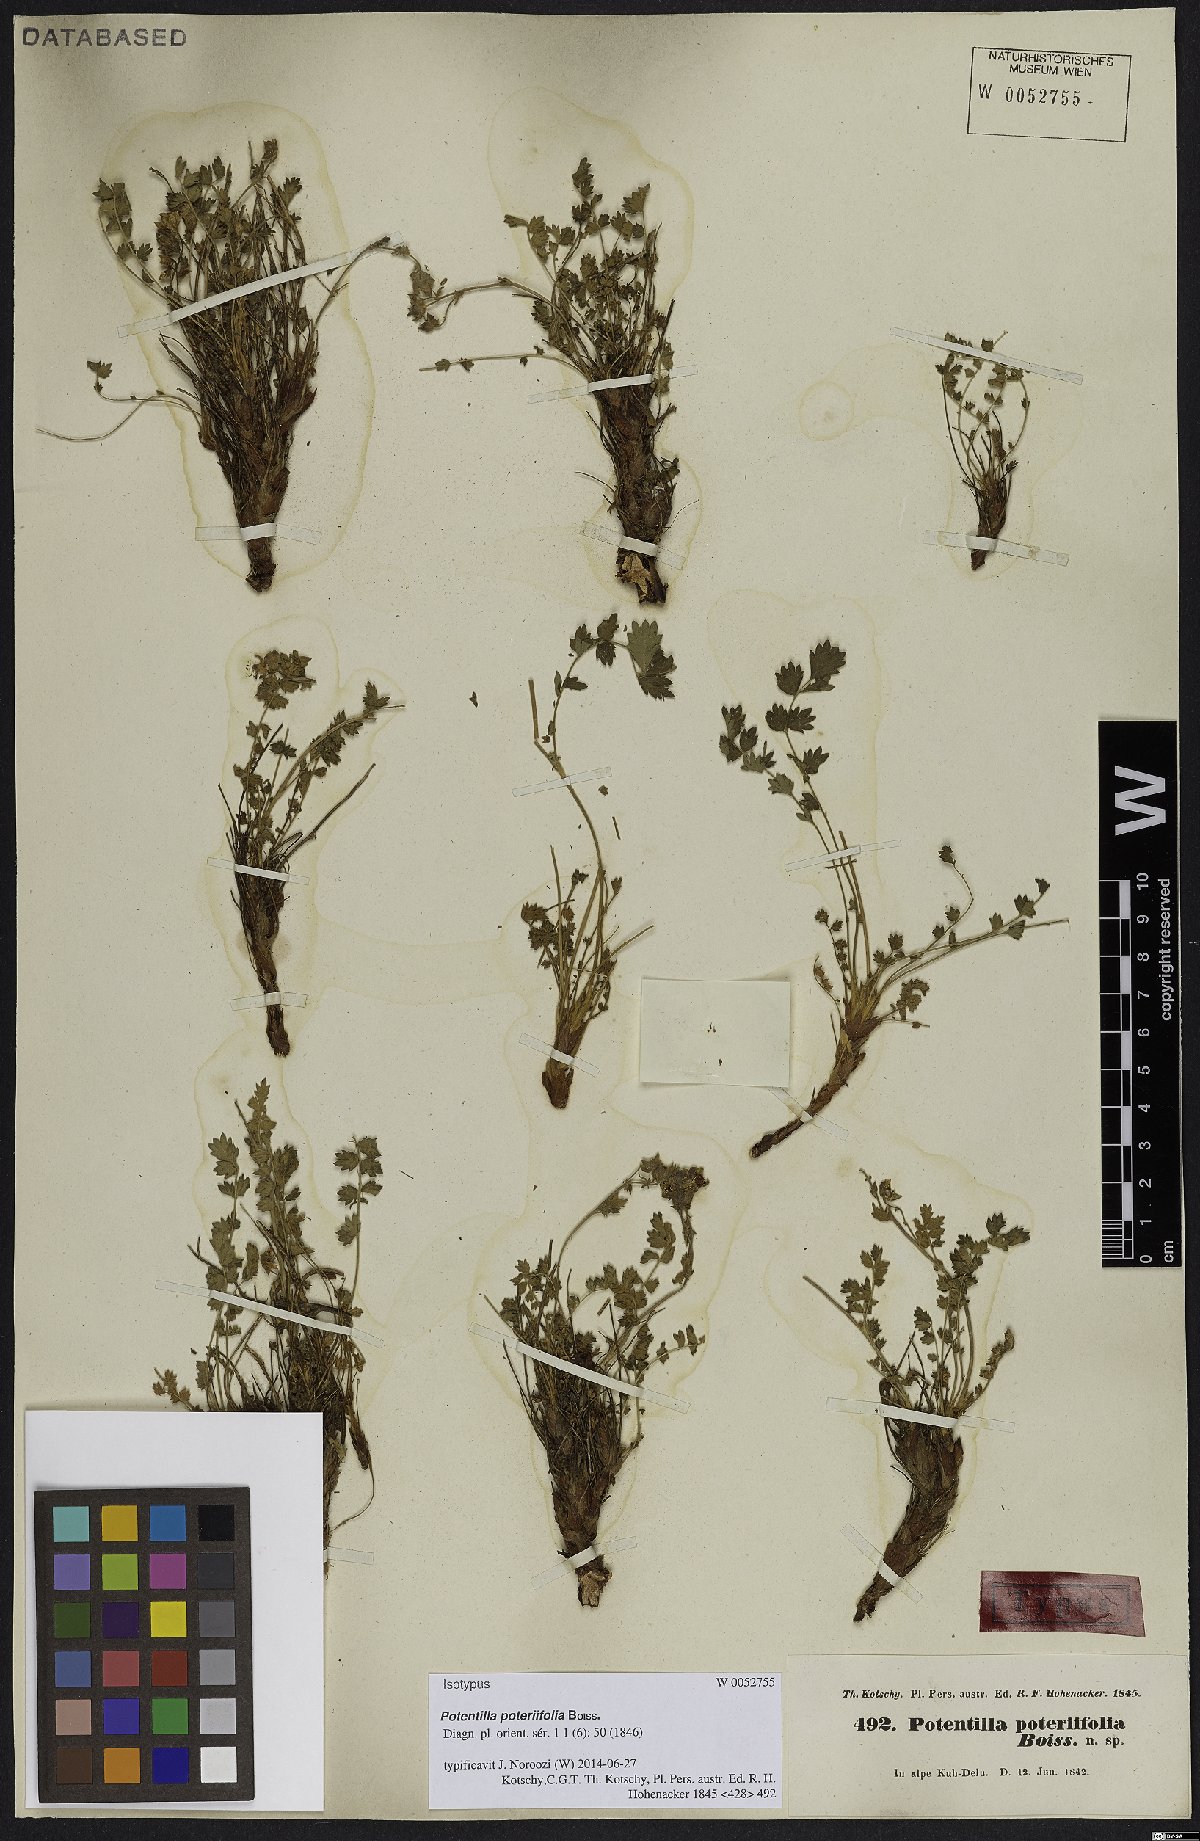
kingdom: Plantae
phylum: Tracheophyta
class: Magnoliopsida
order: Rosales
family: Rosaceae
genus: Drymocallis
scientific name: Drymocallis poteriifolia
